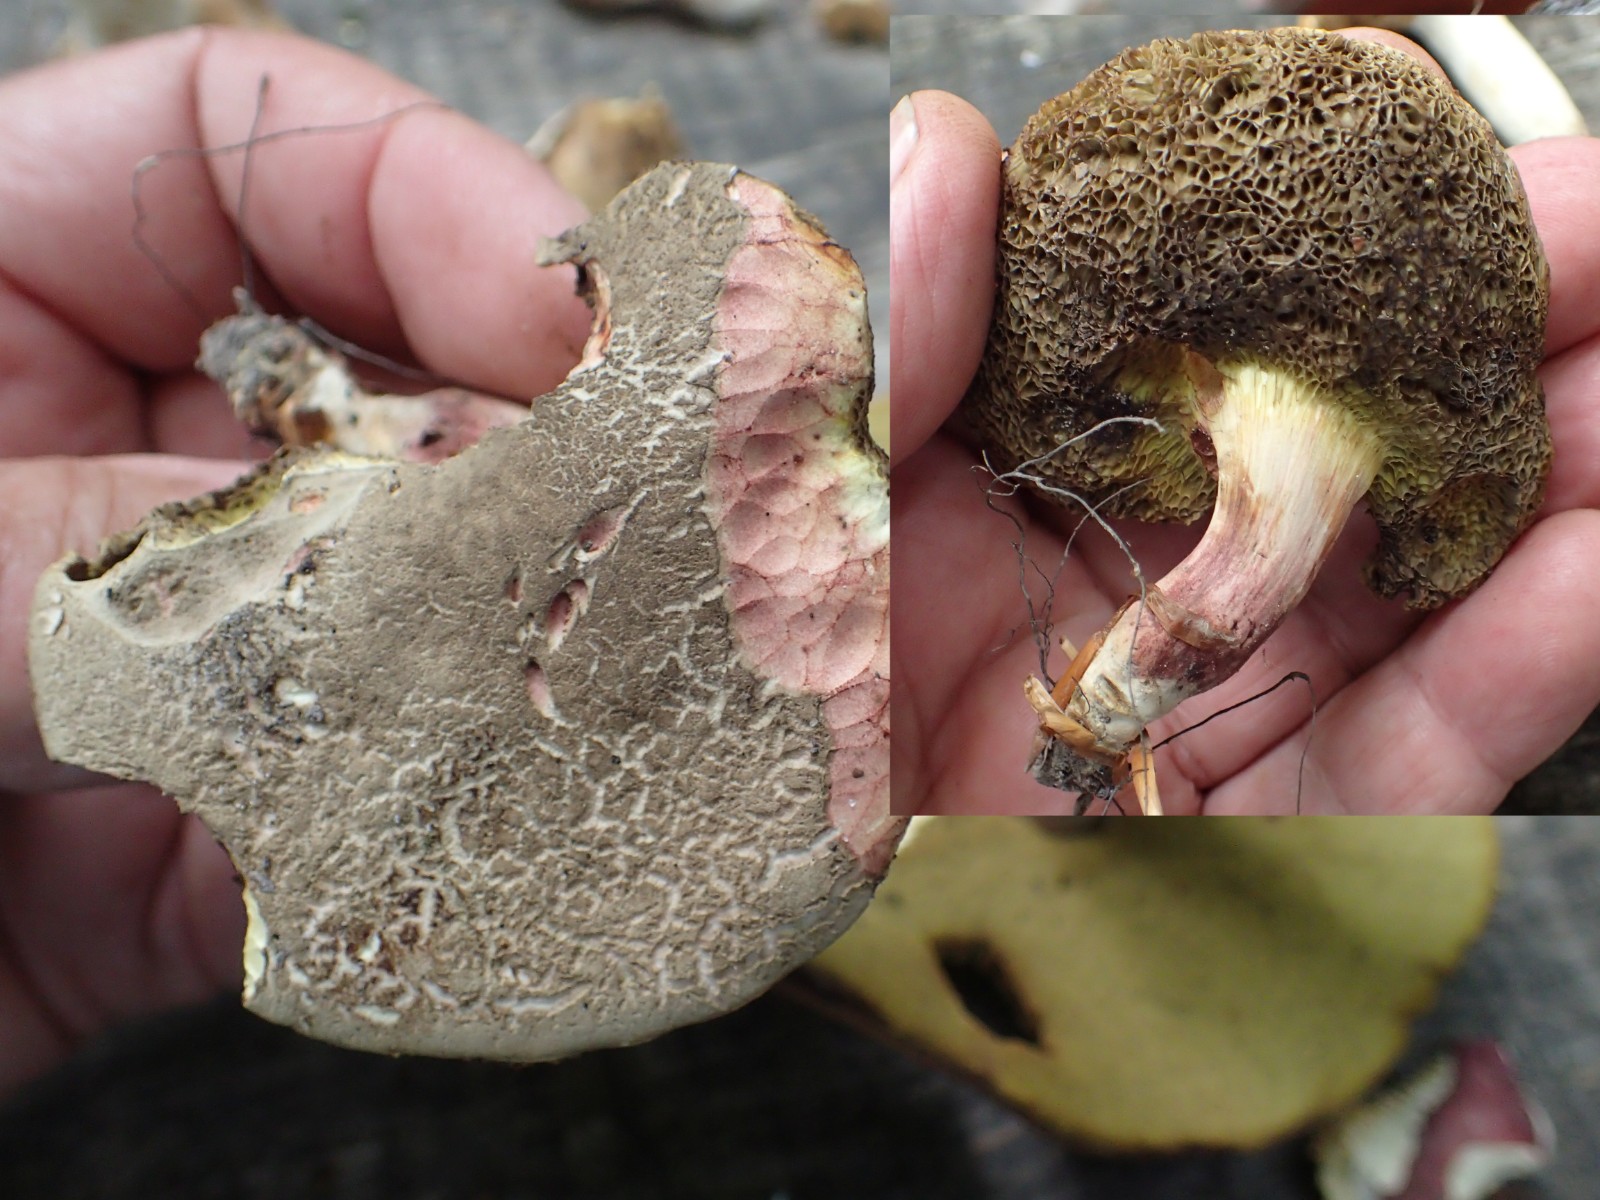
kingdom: Fungi
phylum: Basidiomycota
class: Agaricomycetes
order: Boletales
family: Boletaceae
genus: Xerocomellus
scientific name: Xerocomellus
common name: dværgrørhat
